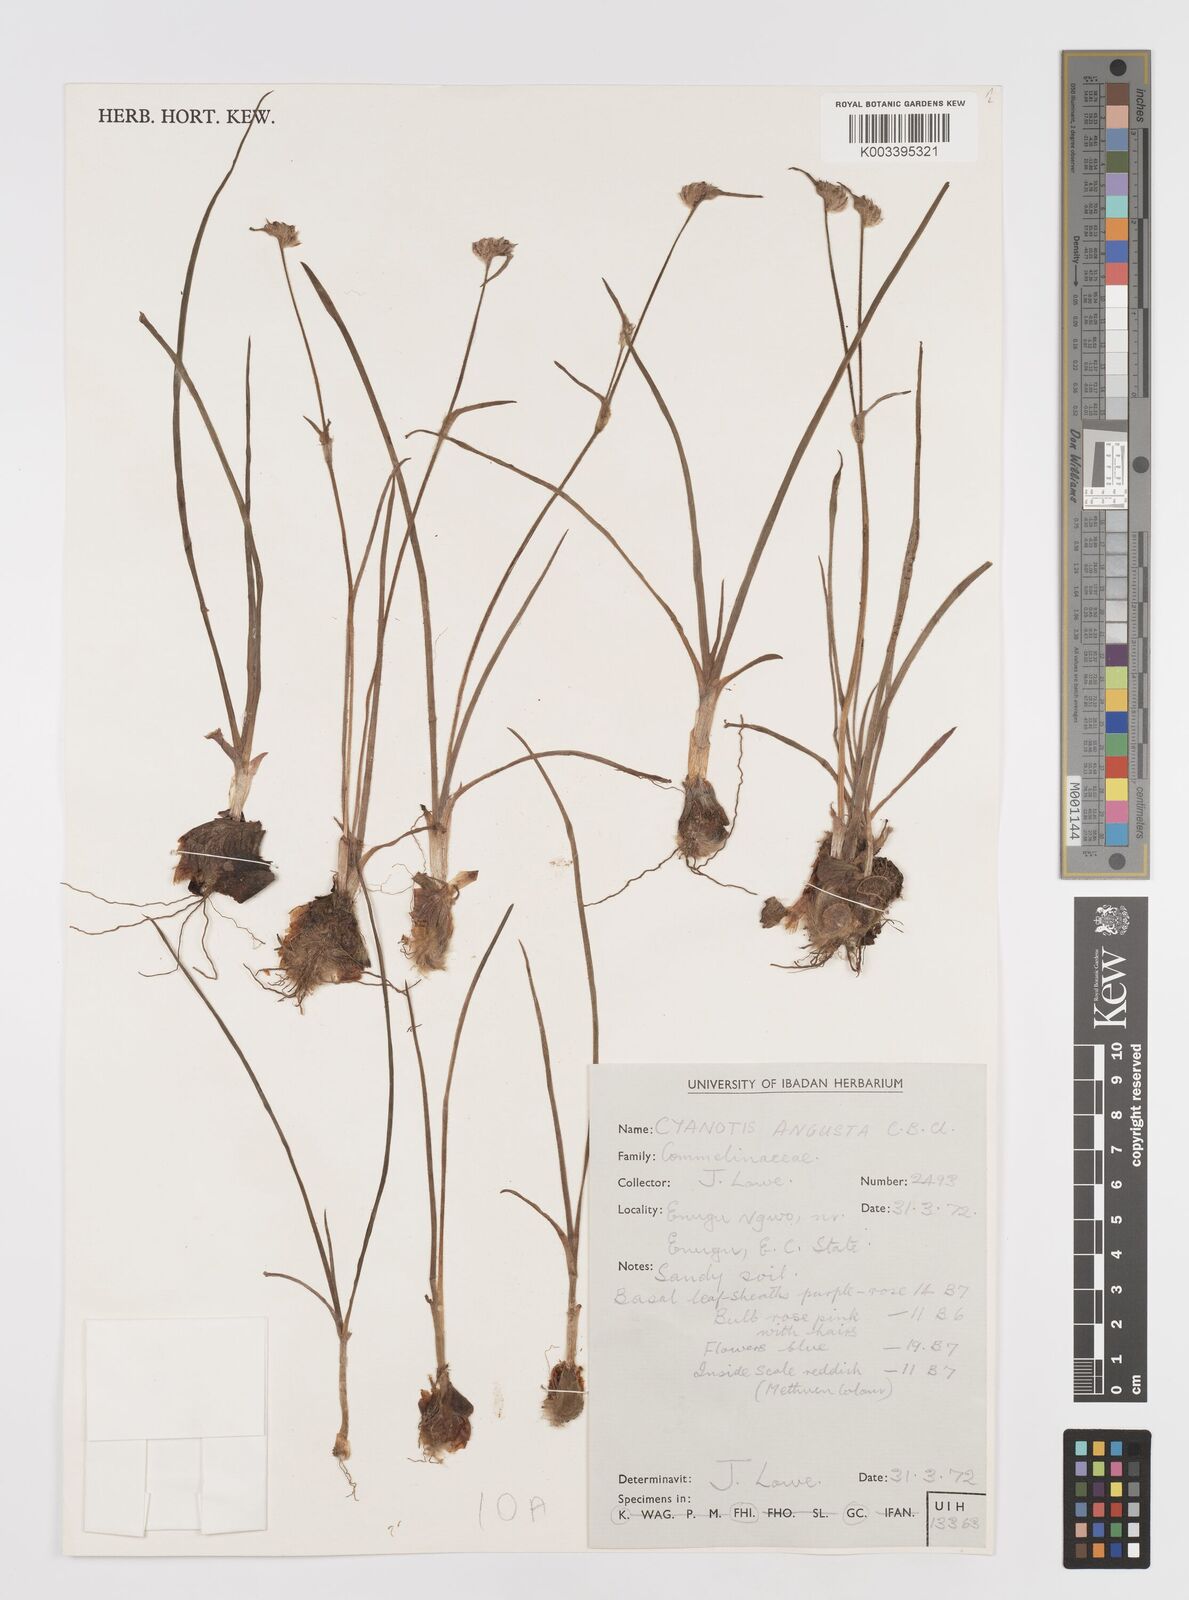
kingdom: Plantae
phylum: Tracheophyta
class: Liliopsida
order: Commelinales
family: Commelinaceae
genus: Cyanotis
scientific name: Cyanotis angusta
